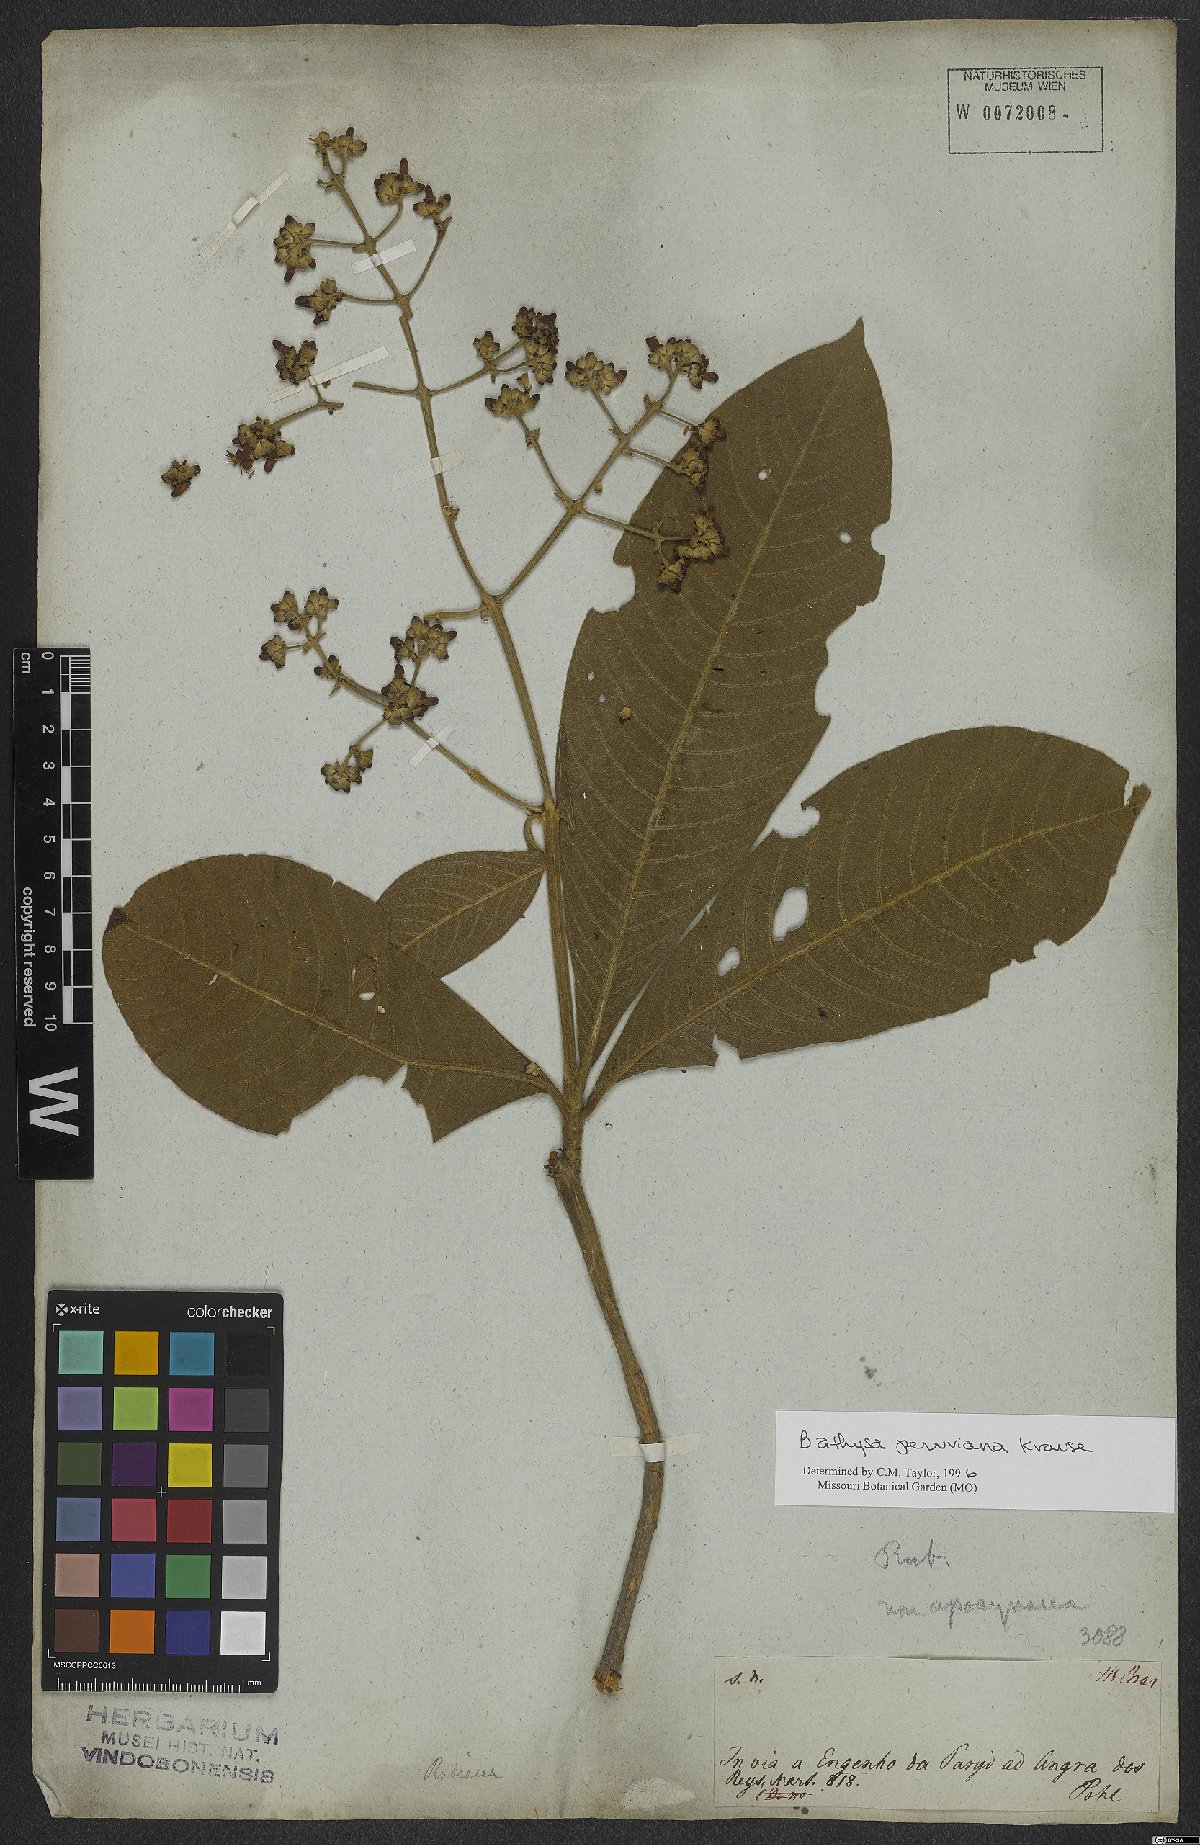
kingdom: Plantae
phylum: Tracheophyta
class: Magnoliopsida
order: Gentianales
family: Rubiaceae
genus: Schizocalyx
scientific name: Schizocalyx peruvianus
